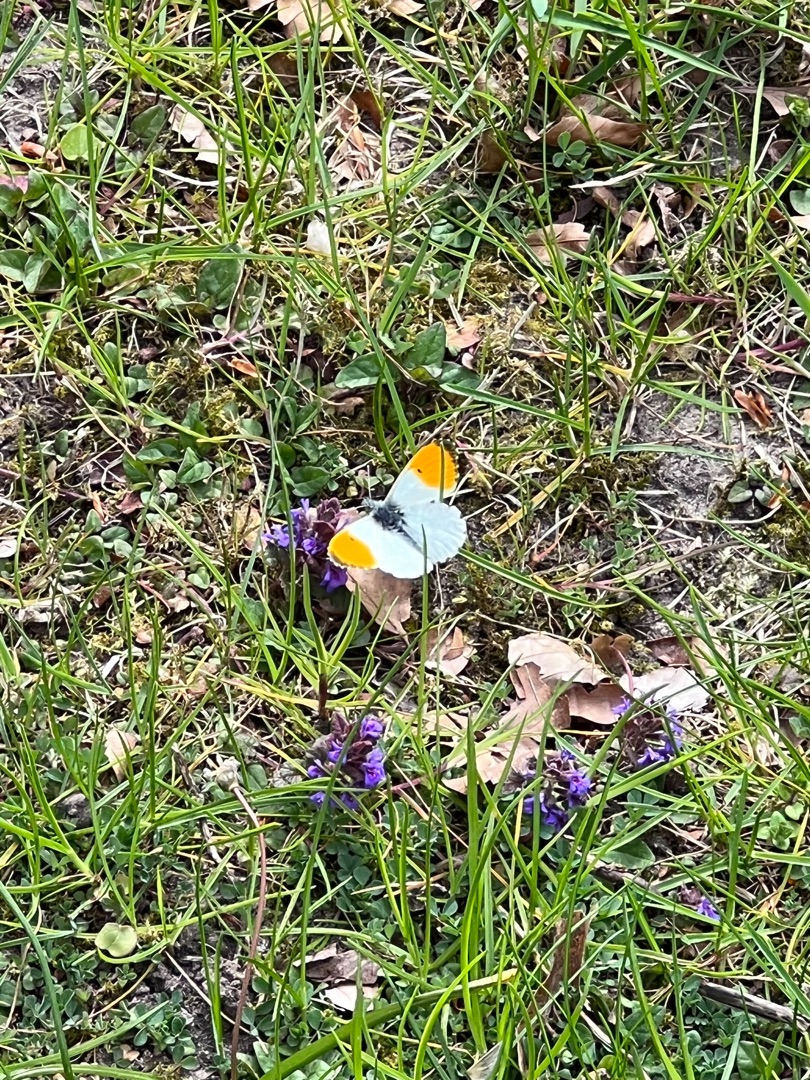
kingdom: Animalia
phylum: Arthropoda
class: Insecta
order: Lepidoptera
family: Pieridae
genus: Anthocharis
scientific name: Anthocharis cardamines
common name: Aurora
